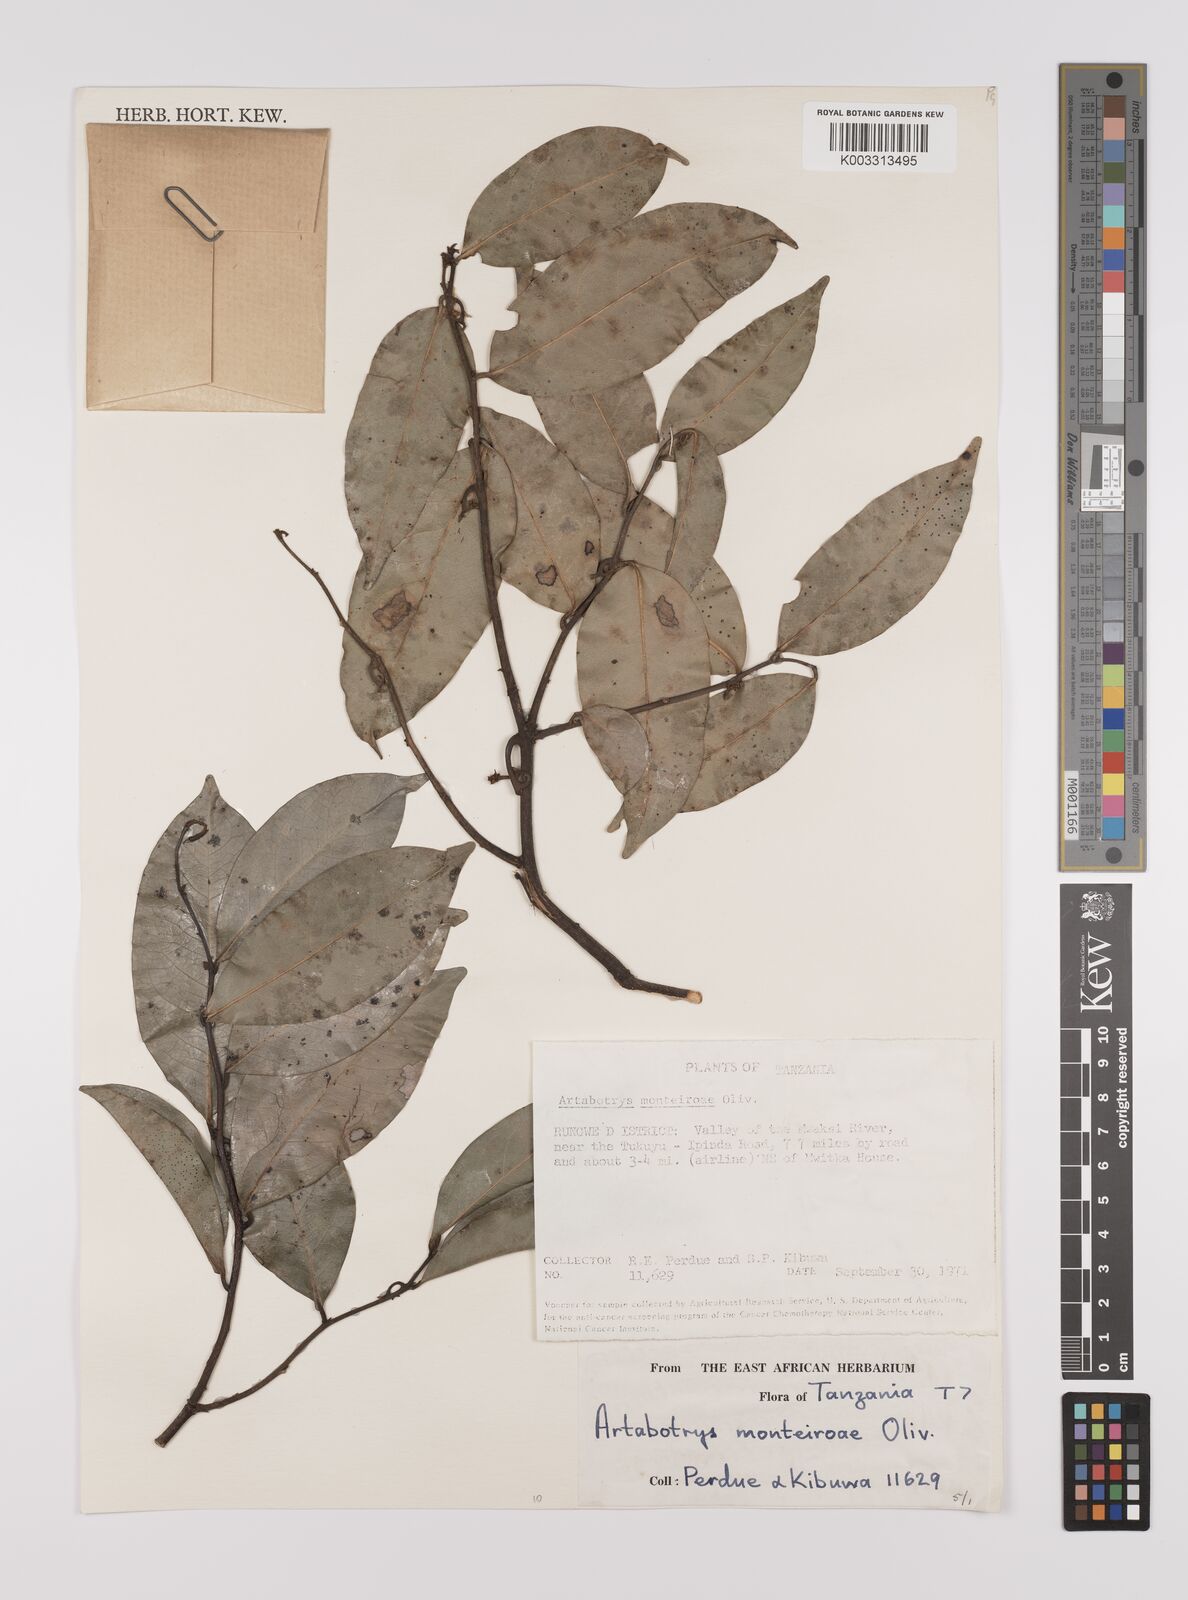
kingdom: Plantae
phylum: Tracheophyta
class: Magnoliopsida
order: Magnoliales
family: Annonaceae
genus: Artabotrys
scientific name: Artabotrys monteiroae
